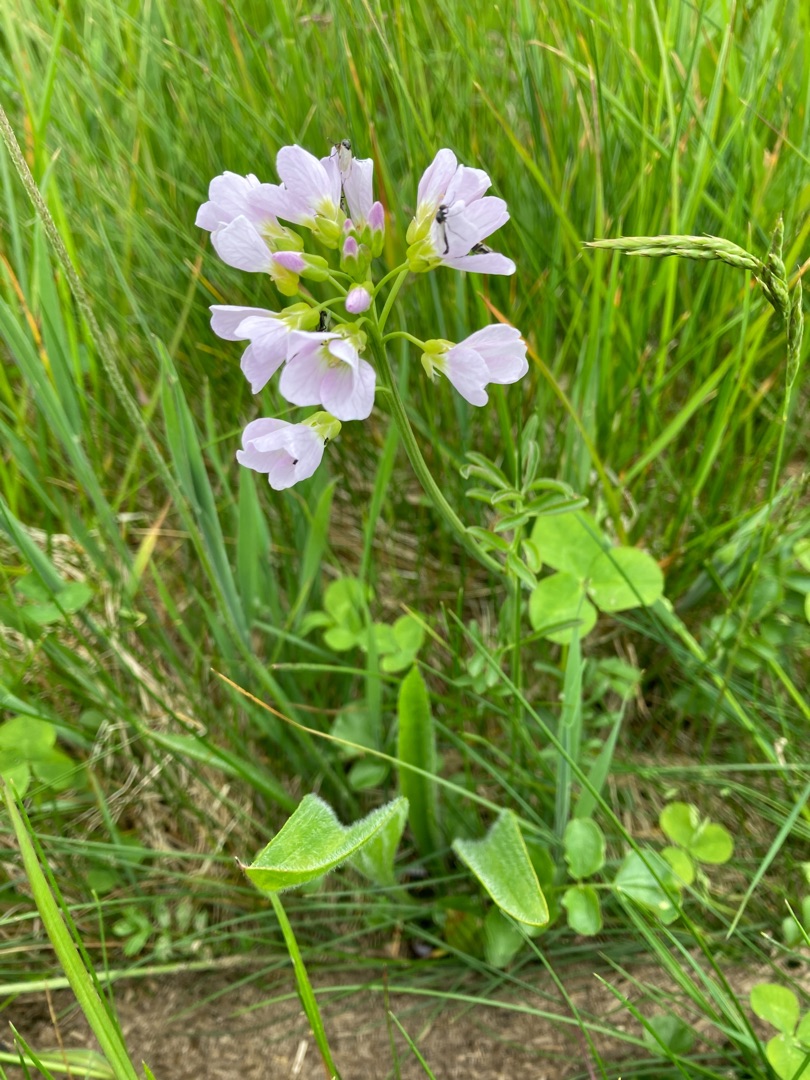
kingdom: Plantae
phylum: Tracheophyta
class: Magnoliopsida
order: Brassicales
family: Brassicaceae
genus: Cardamine
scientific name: Cardamine pratensis
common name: Engkarse
